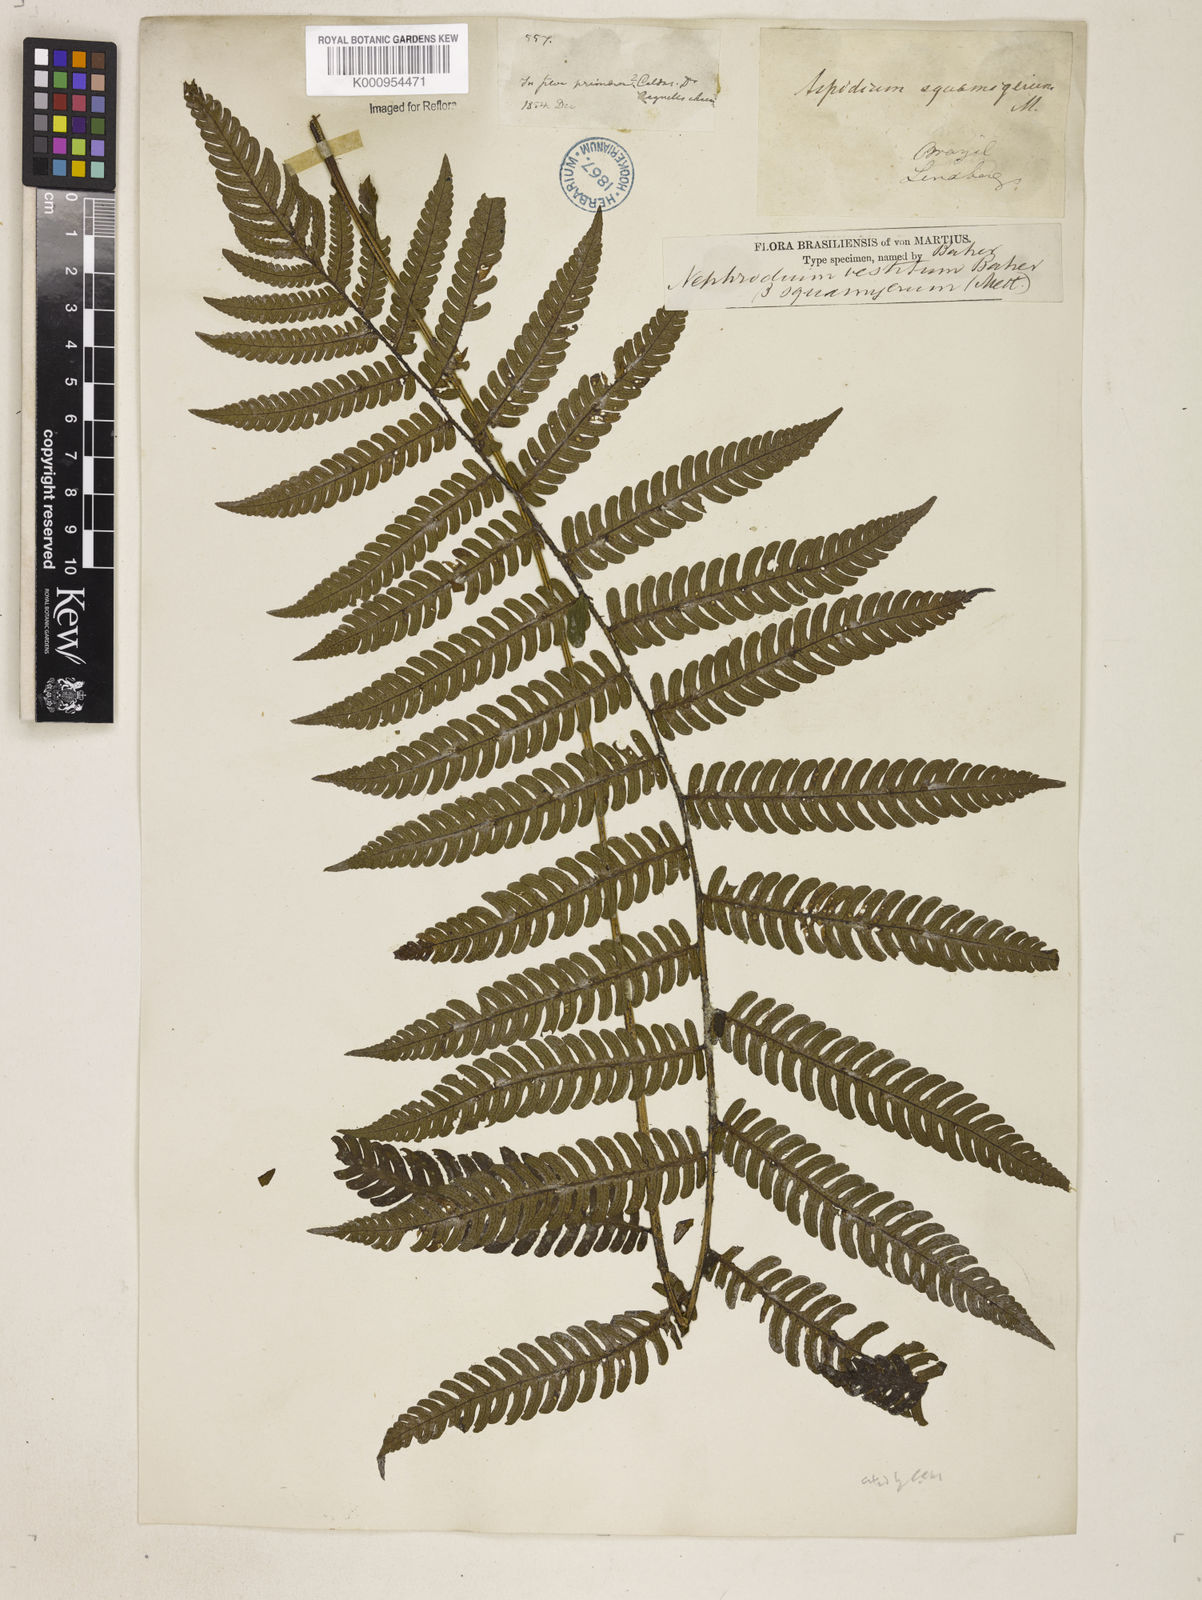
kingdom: Plantae
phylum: Tracheophyta
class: Polypodiopsida
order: Polypodiales
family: Dryopteridaceae
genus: Ctenitis
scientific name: Ctenitis
